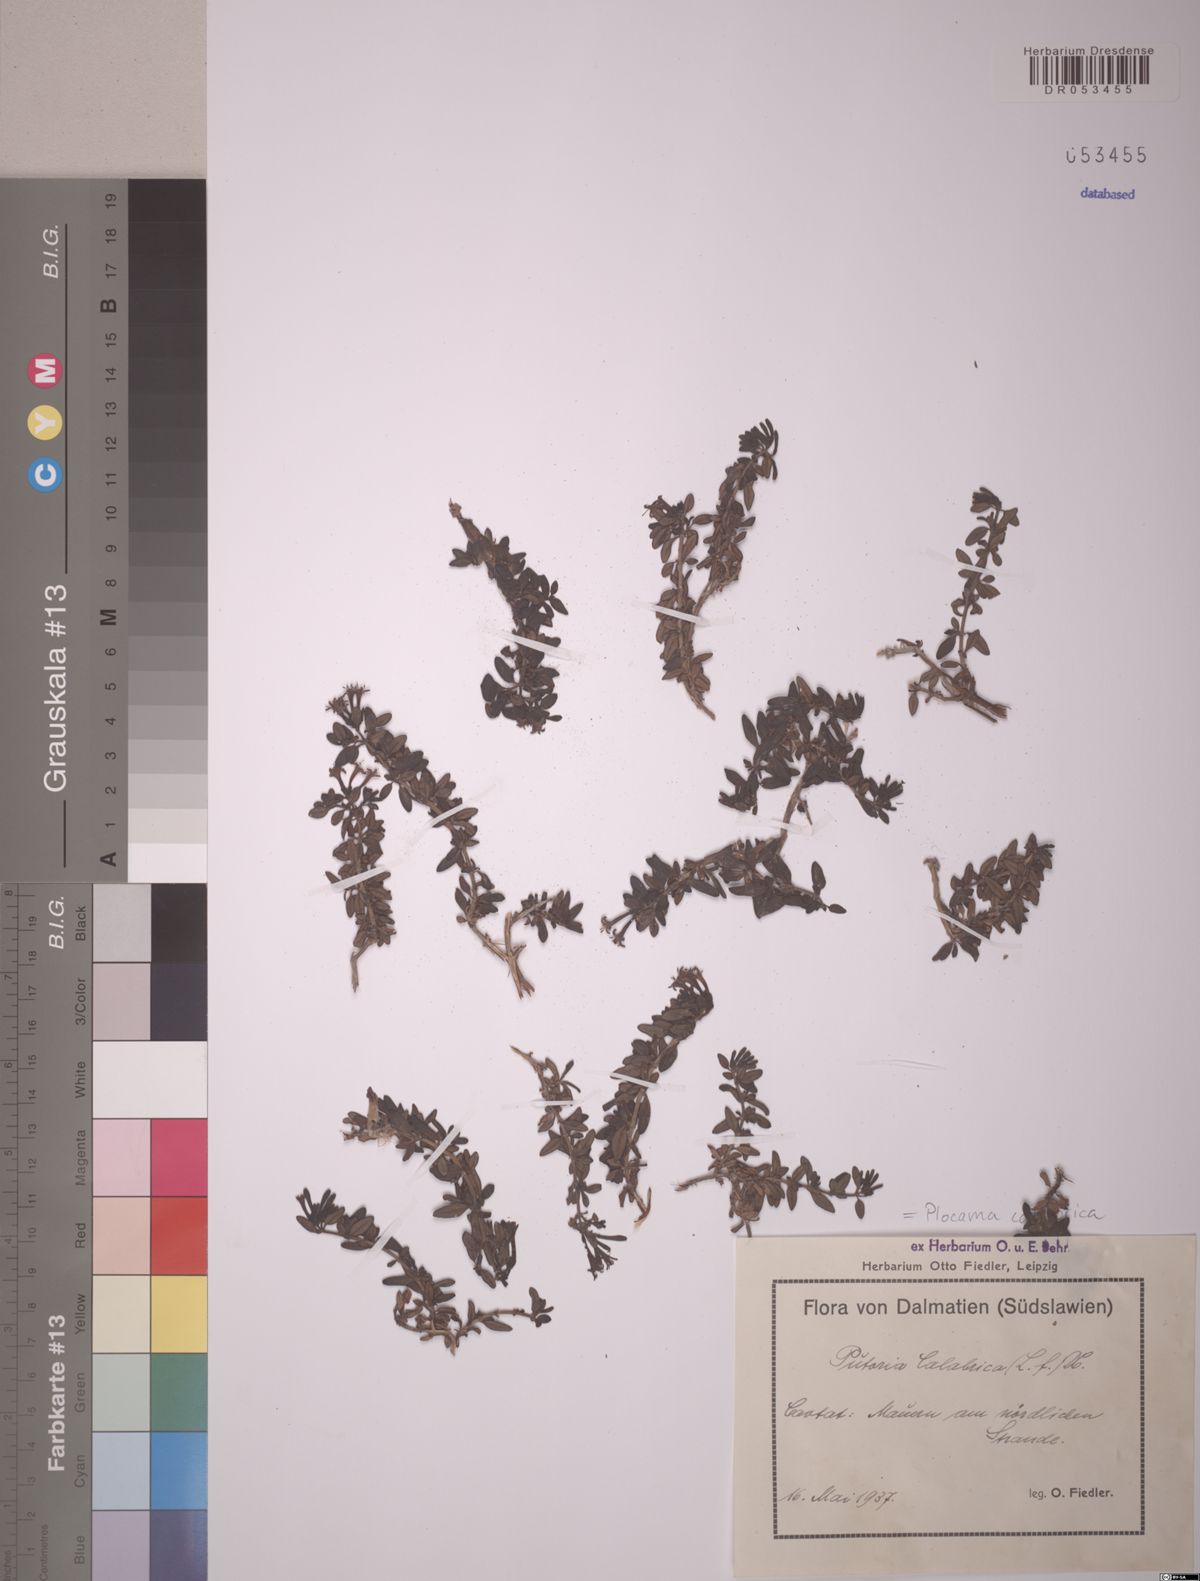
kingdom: Plantae
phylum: Tracheophyta
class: Magnoliopsida
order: Gentianales
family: Rubiaceae
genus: Plocama
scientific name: Plocama calabrica
